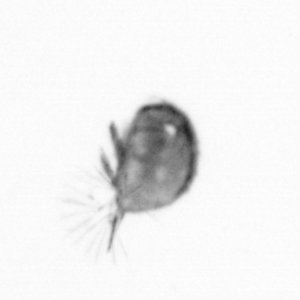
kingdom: Animalia
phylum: Arthropoda
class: Maxillopoda
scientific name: Maxillopoda
